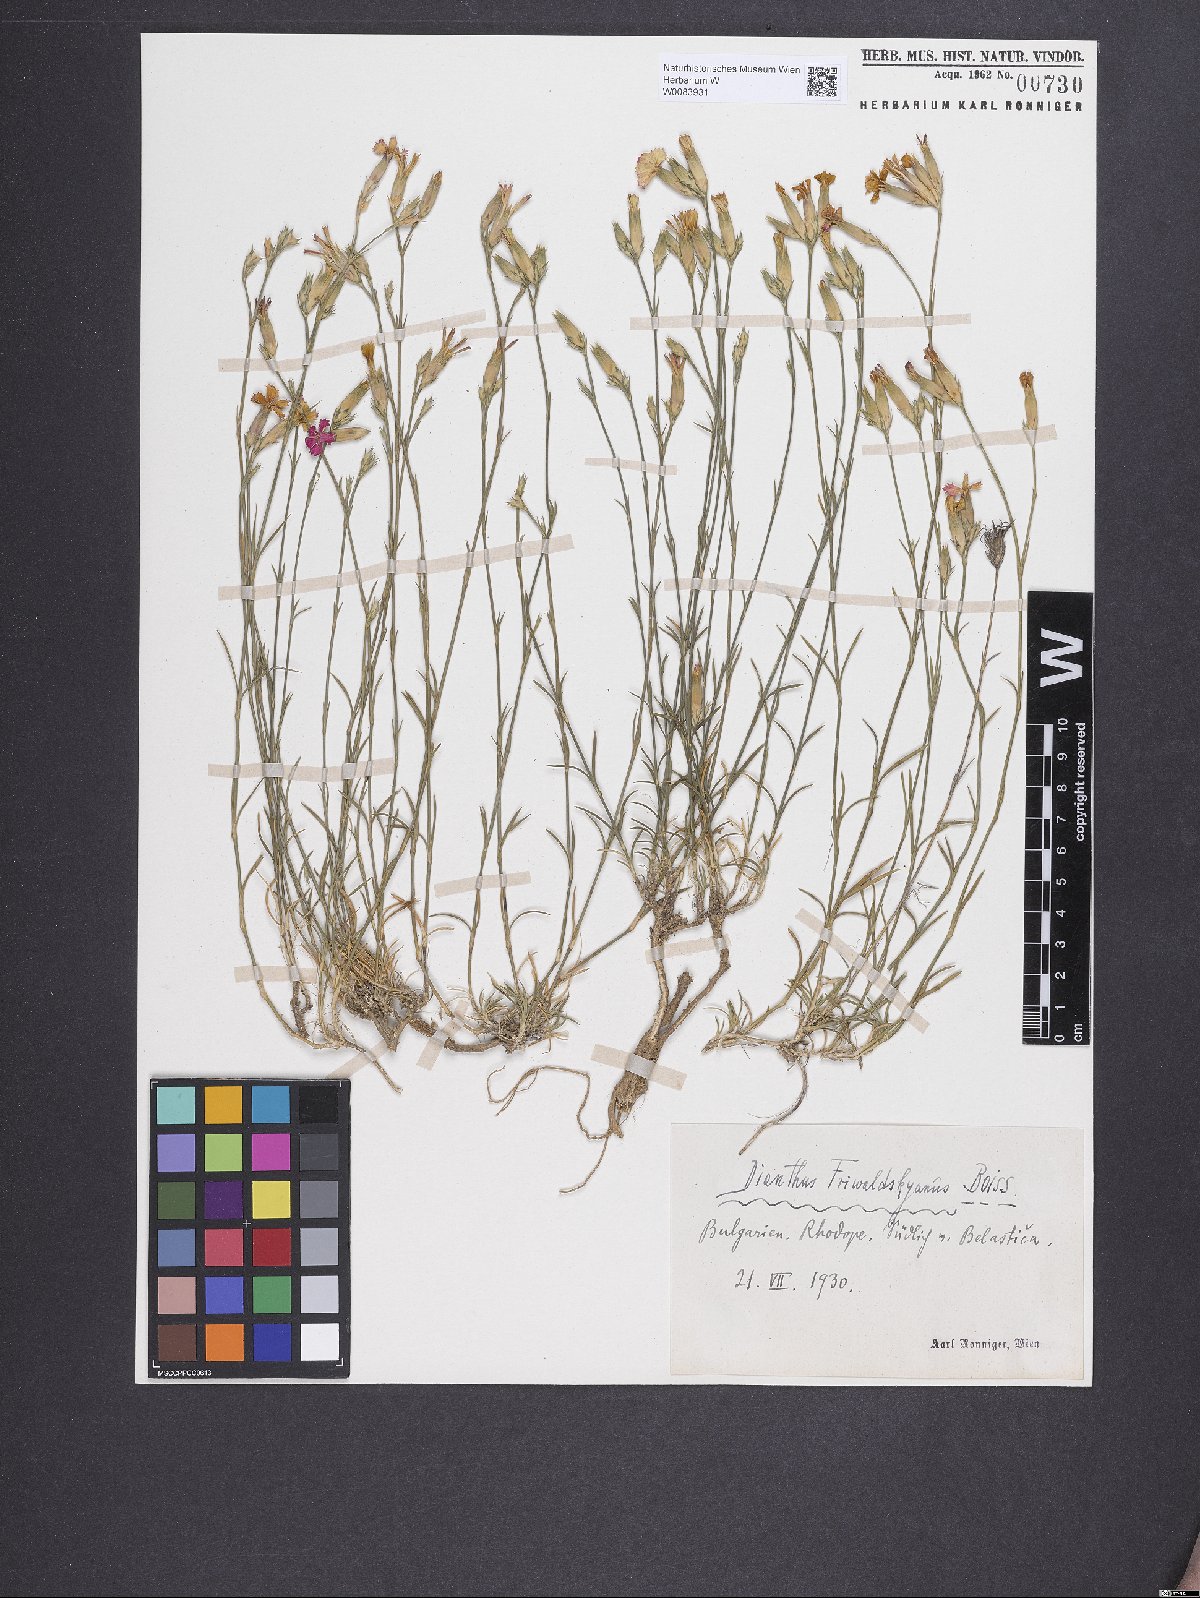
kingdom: Plantae
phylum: Tracheophyta
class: Magnoliopsida
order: Caryophyllales
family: Caryophyllaceae
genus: Dianthus
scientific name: Dianthus gracilis
